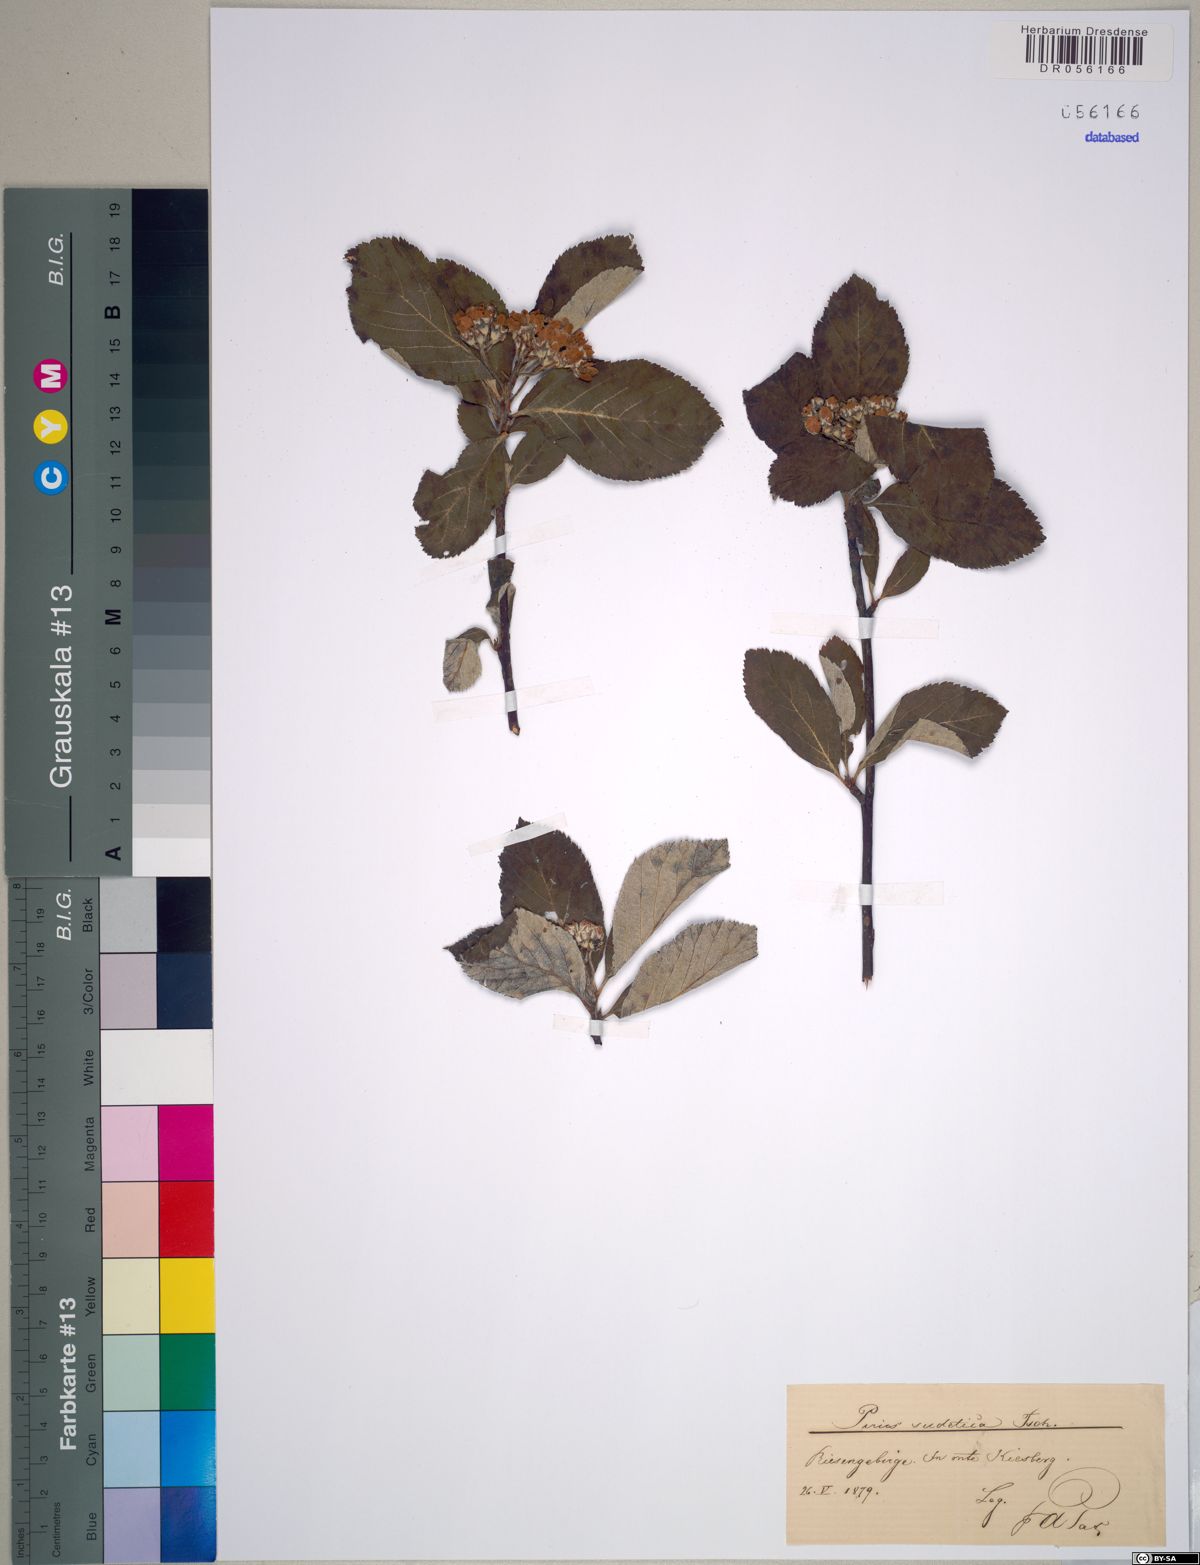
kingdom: Plantae
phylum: Tracheophyta
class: Magnoliopsida
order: Rosales
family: Rosaceae
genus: Majovskya
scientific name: Majovskya sudetica
